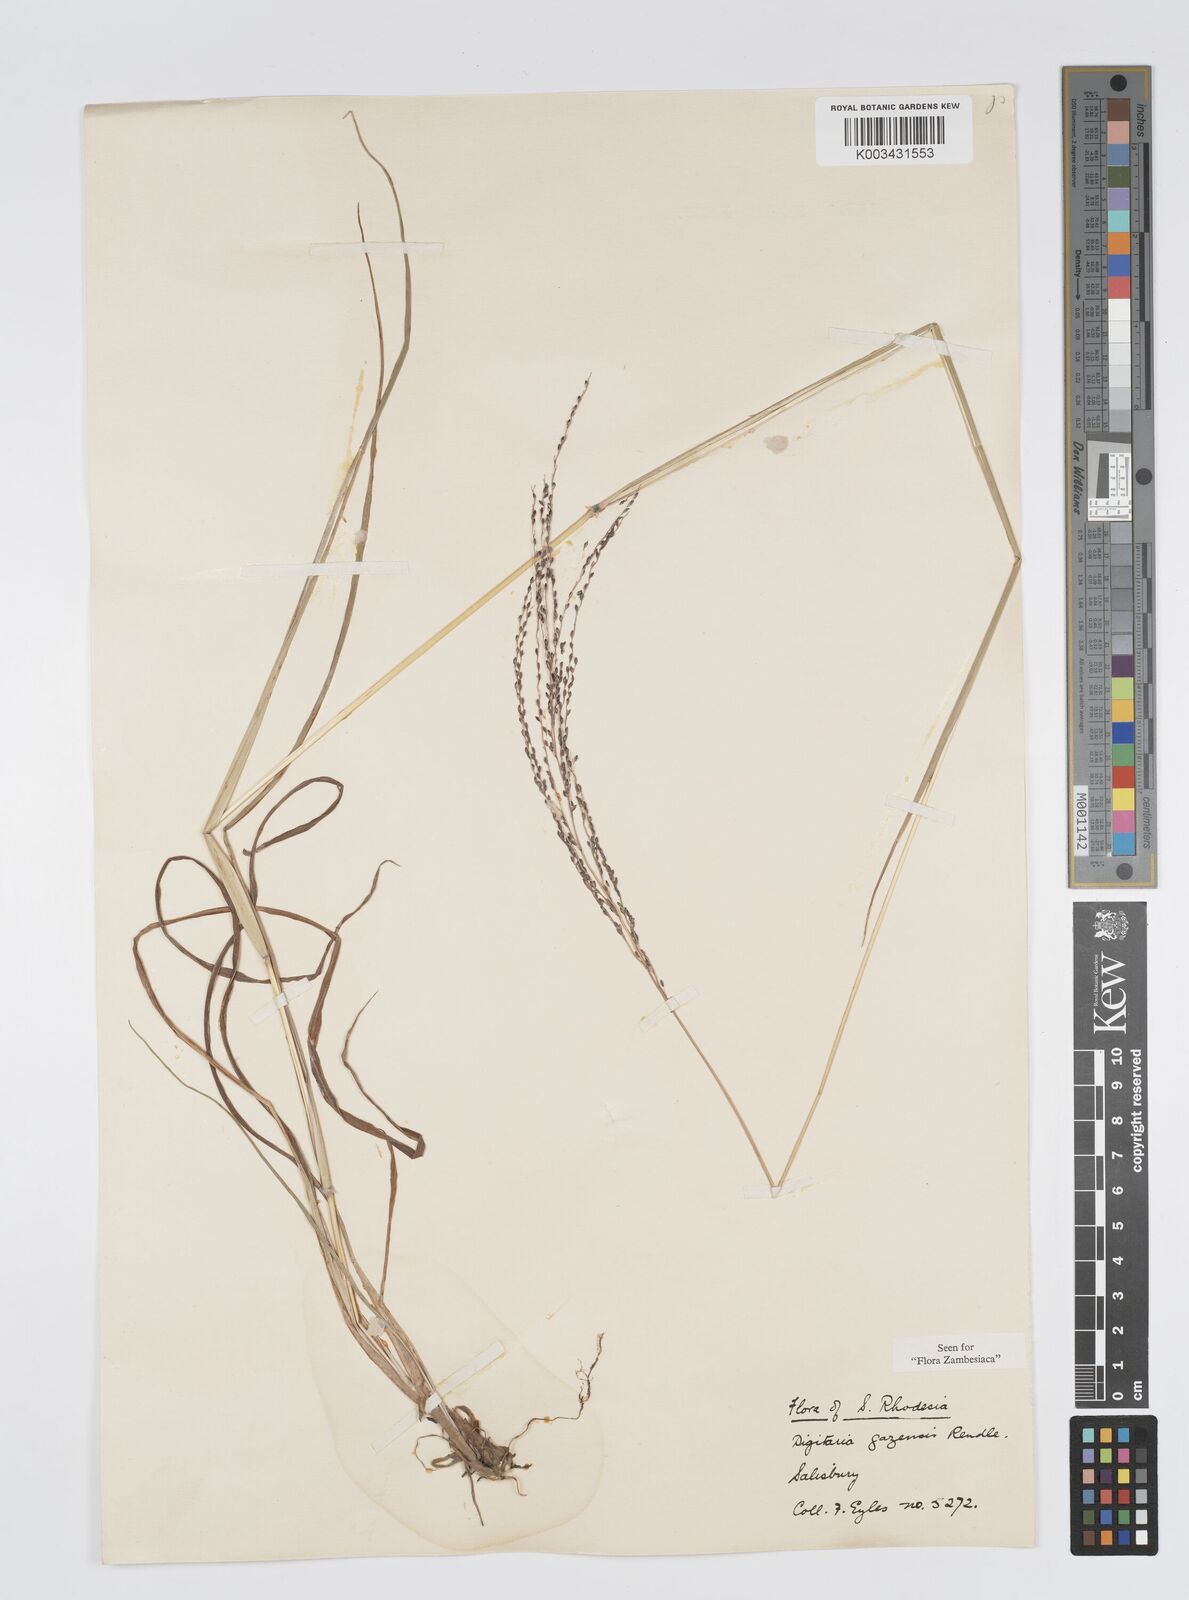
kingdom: Plantae
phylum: Tracheophyta
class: Liliopsida
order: Poales
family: Poaceae
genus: Digitaria
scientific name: Digitaria gazensis
